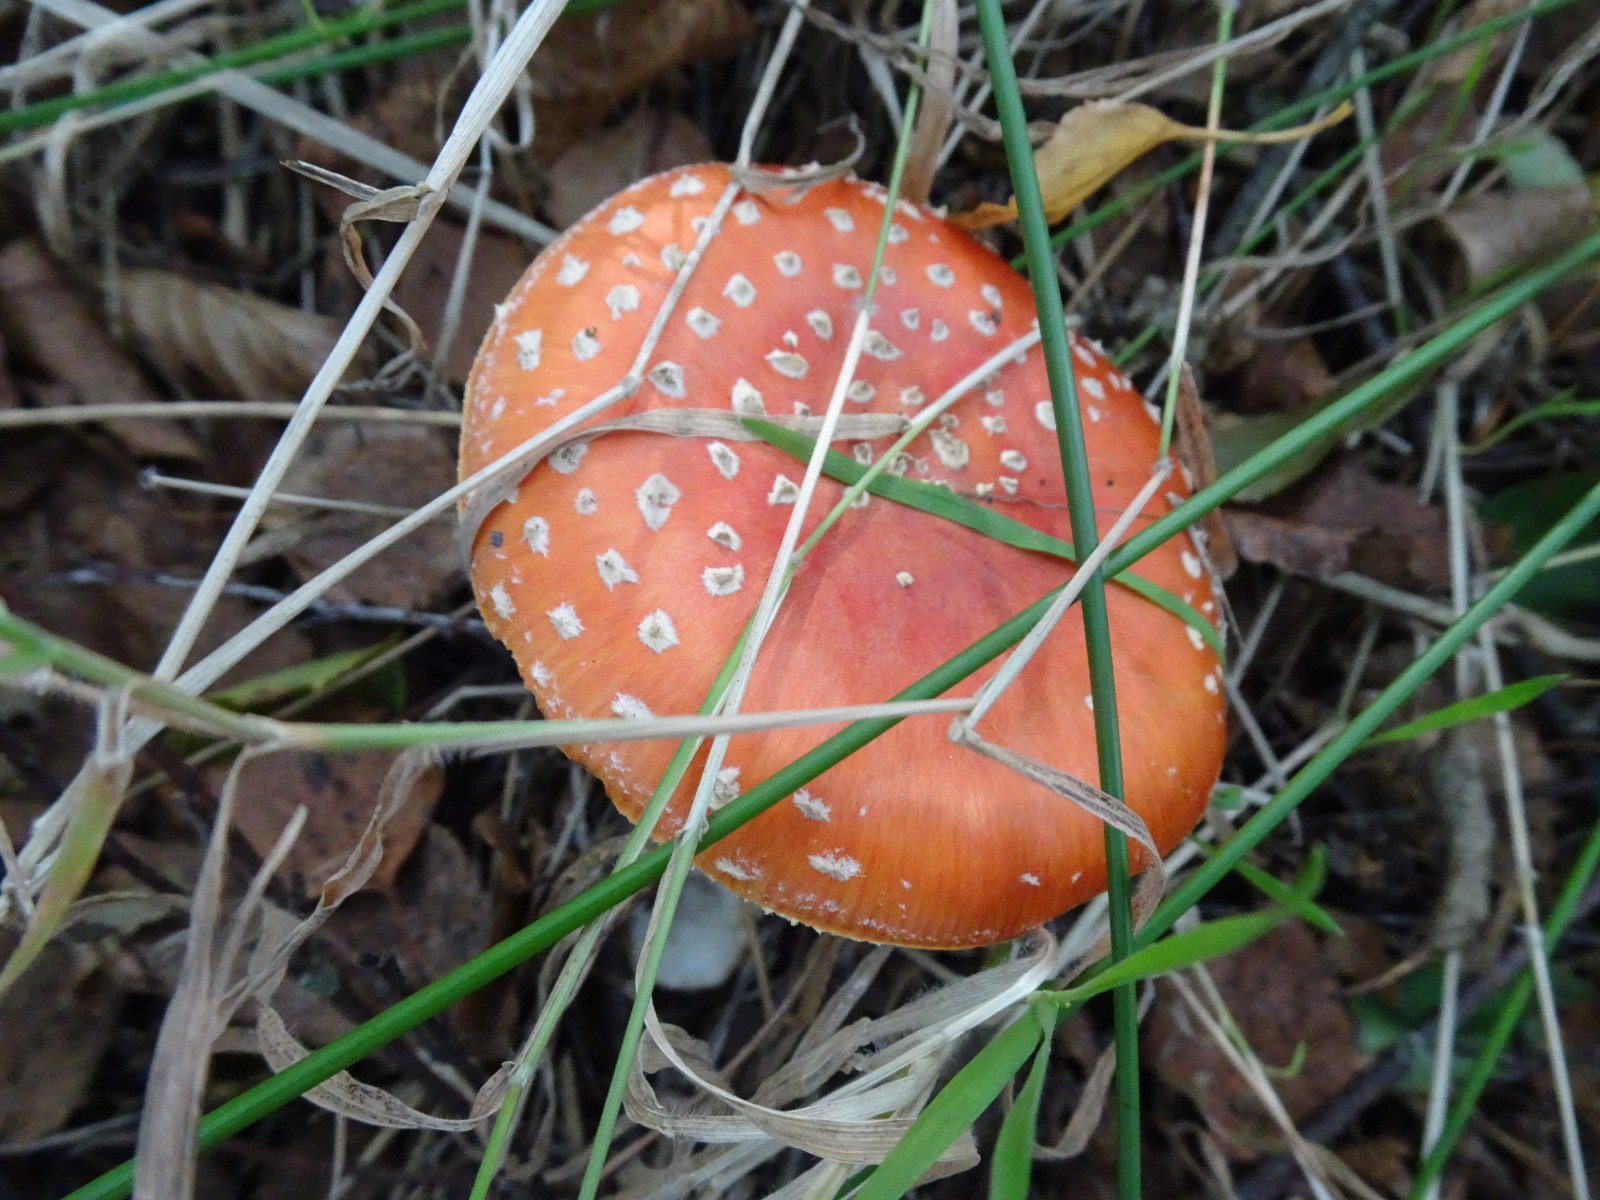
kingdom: Fungi
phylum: Basidiomycota
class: Agaricomycetes
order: Agaricales
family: Amanitaceae
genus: Amanita
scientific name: Amanita muscaria
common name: rød fluesvamp
